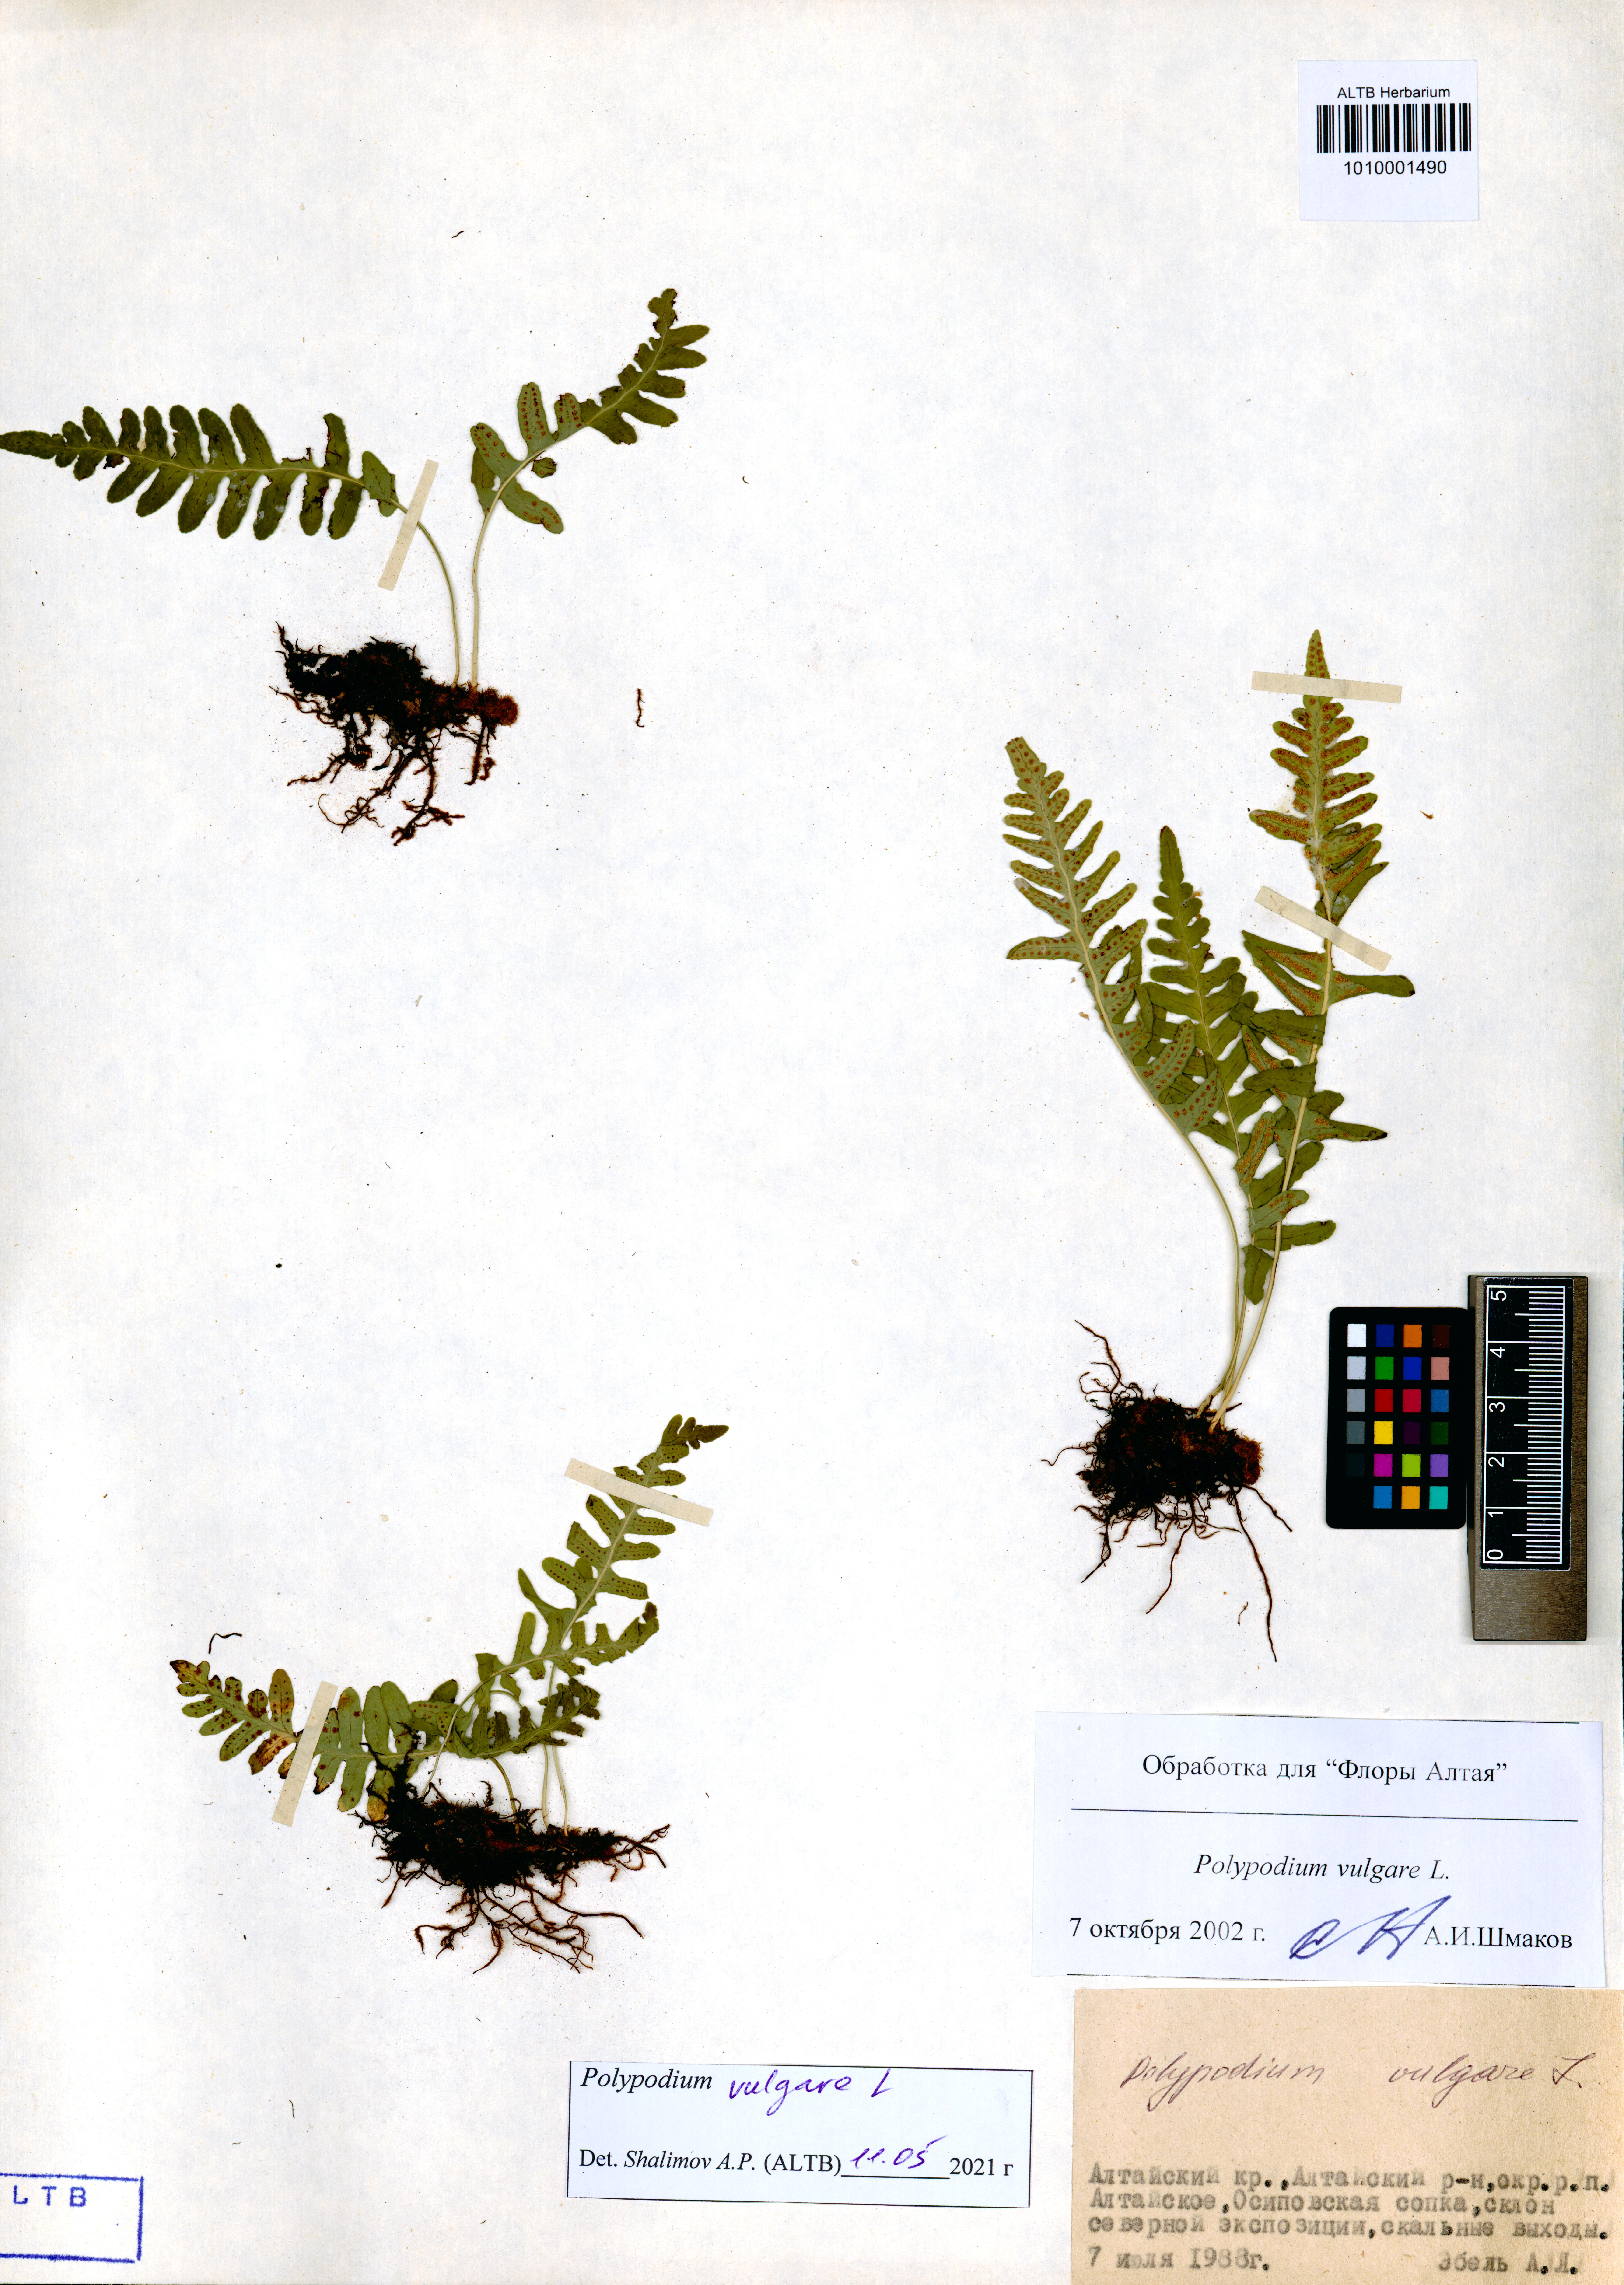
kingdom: Plantae
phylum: Tracheophyta
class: Polypodiopsida
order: Polypodiales
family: Polypodiaceae
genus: Polypodium
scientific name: Polypodium vulgare
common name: Common polypody
